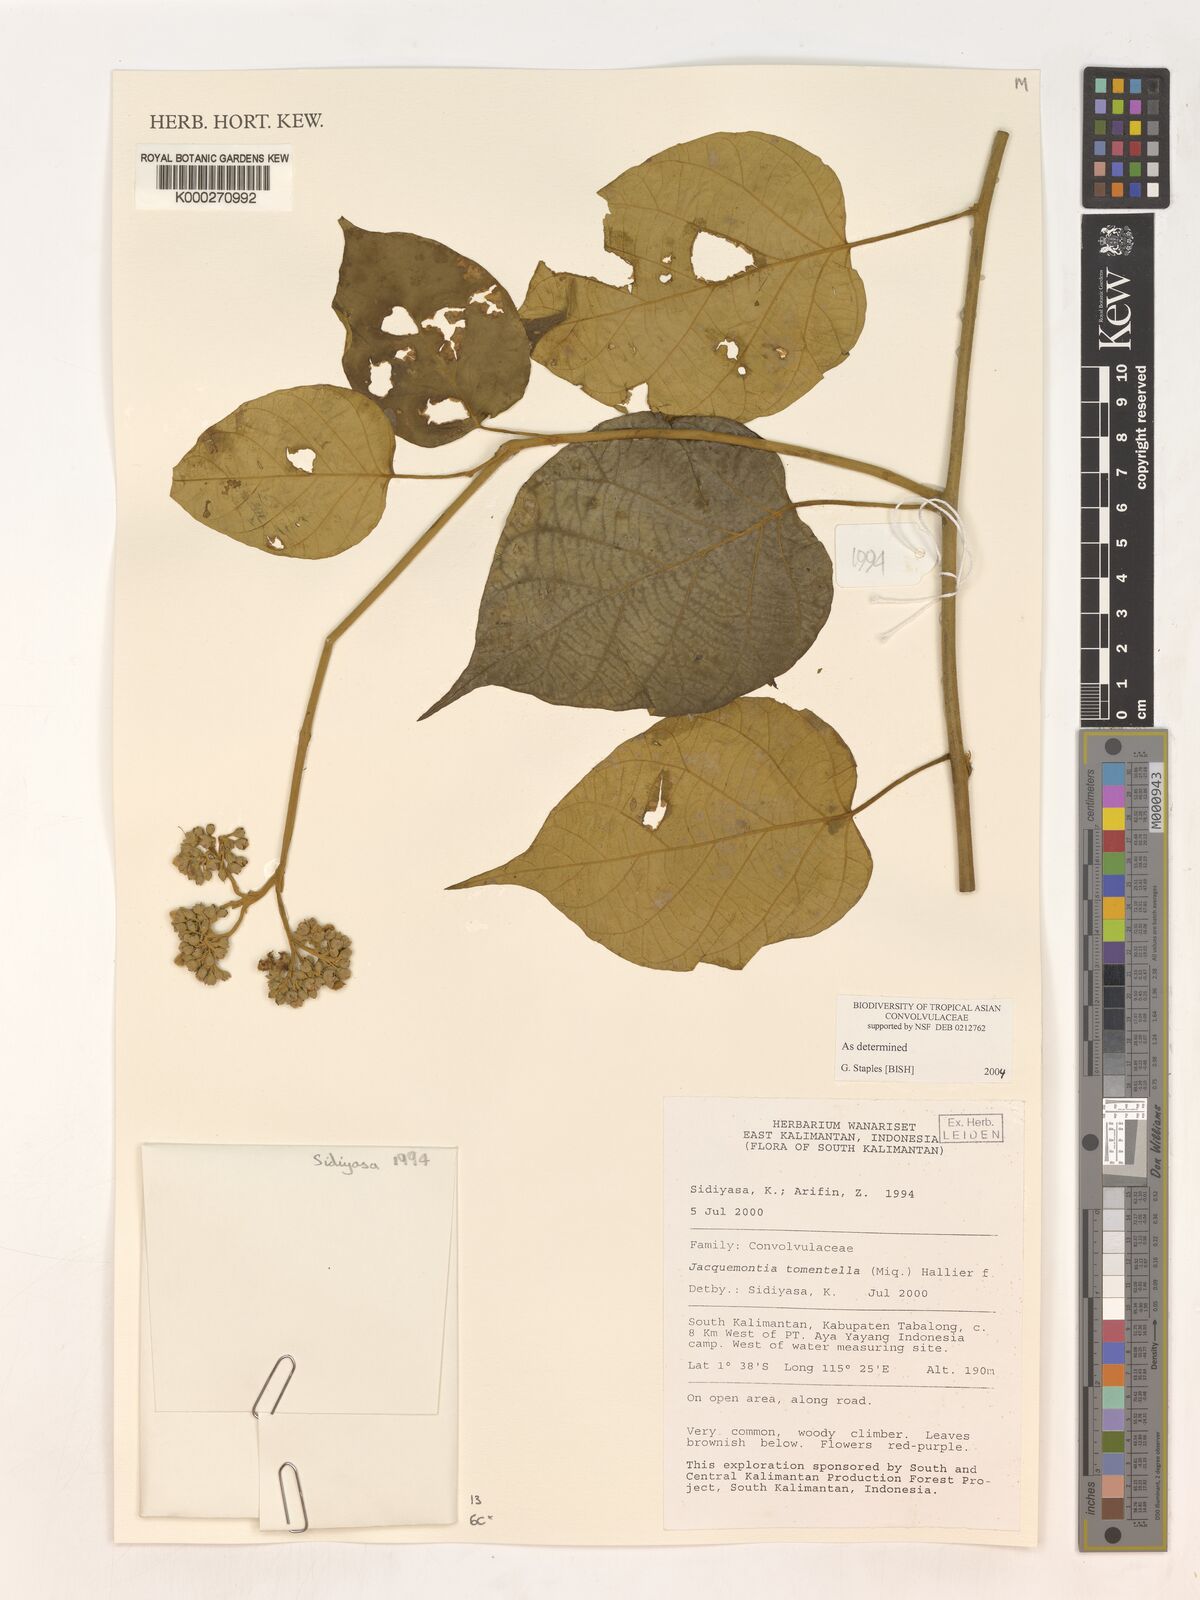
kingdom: Plantae
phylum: Tracheophyta
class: Magnoliopsida
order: Solanales
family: Convolvulaceae
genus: Jacquemontia
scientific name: Jacquemontia tomentella
